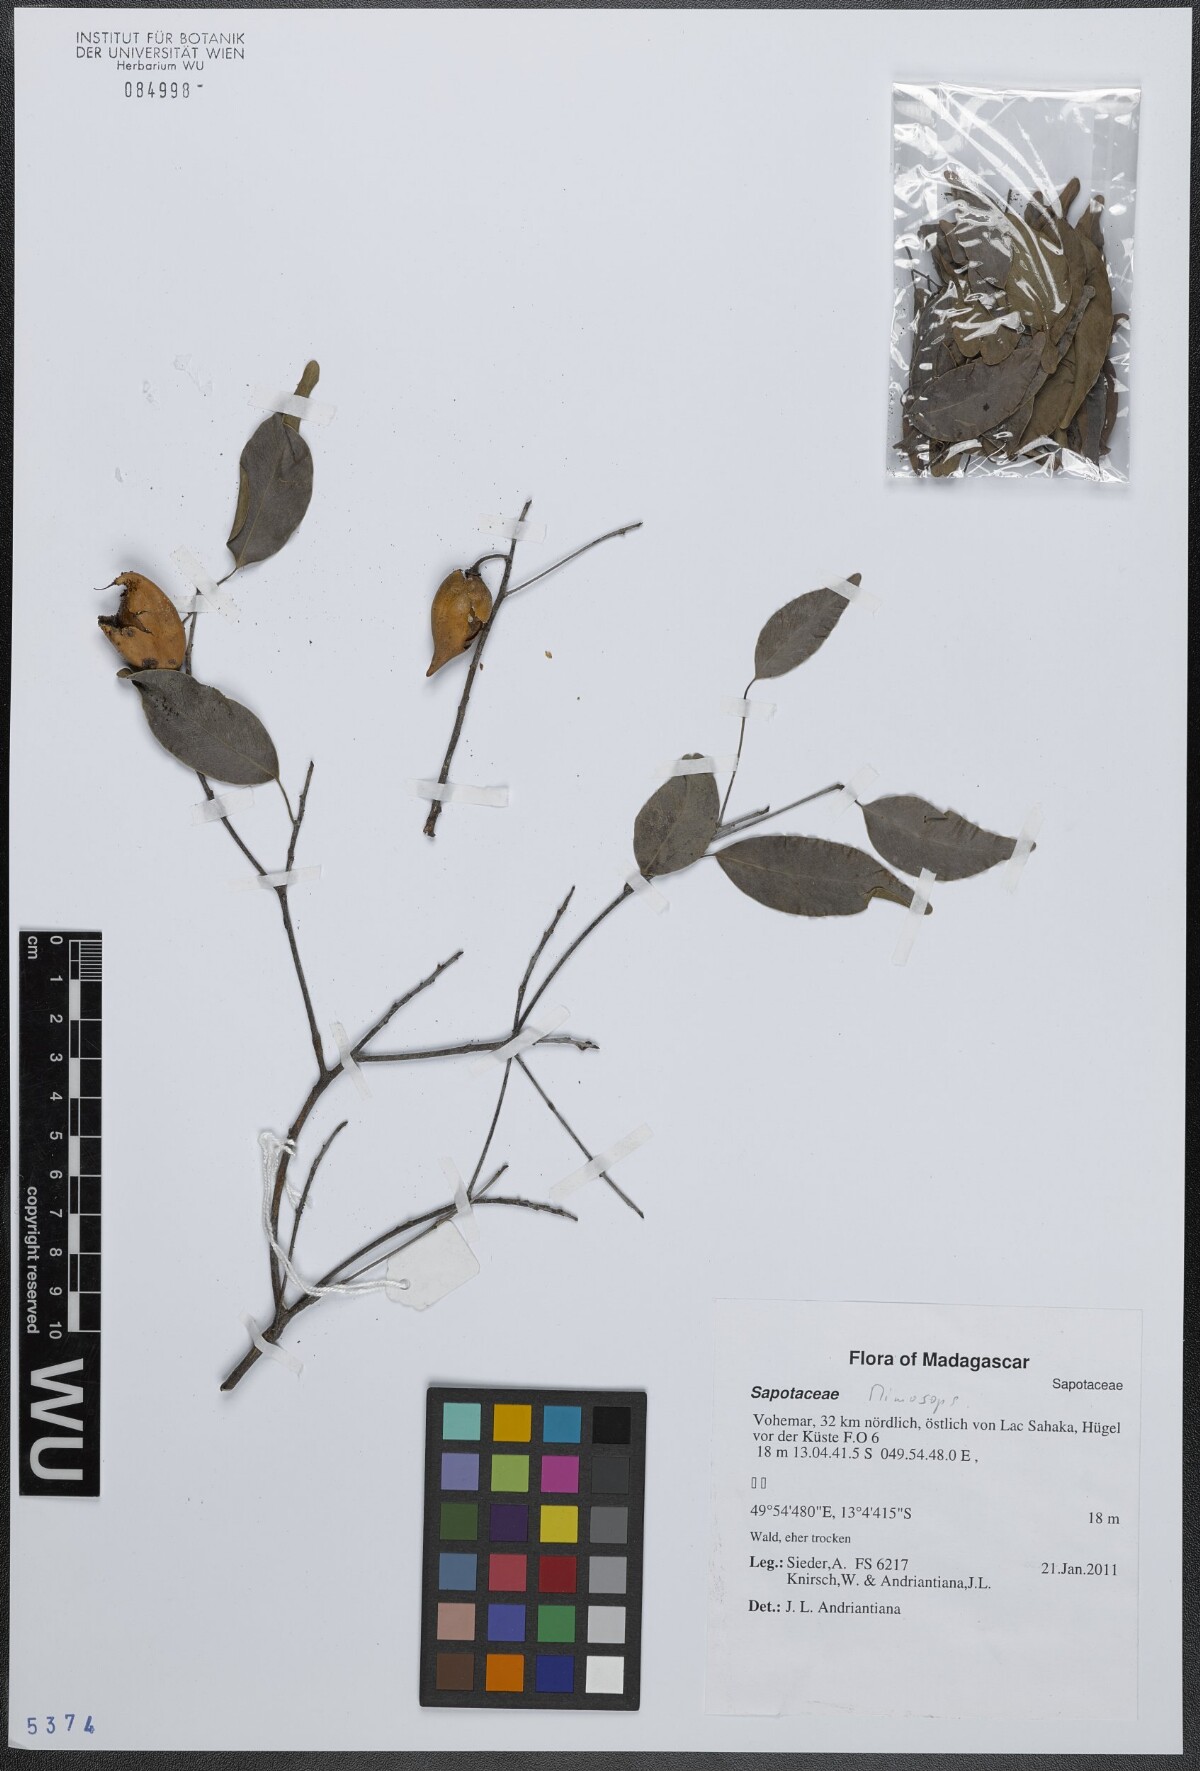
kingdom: Plantae
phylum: Tracheophyta
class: Magnoliopsida
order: Ericales
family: Sapotaceae
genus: Mimusops
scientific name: Mimusops
